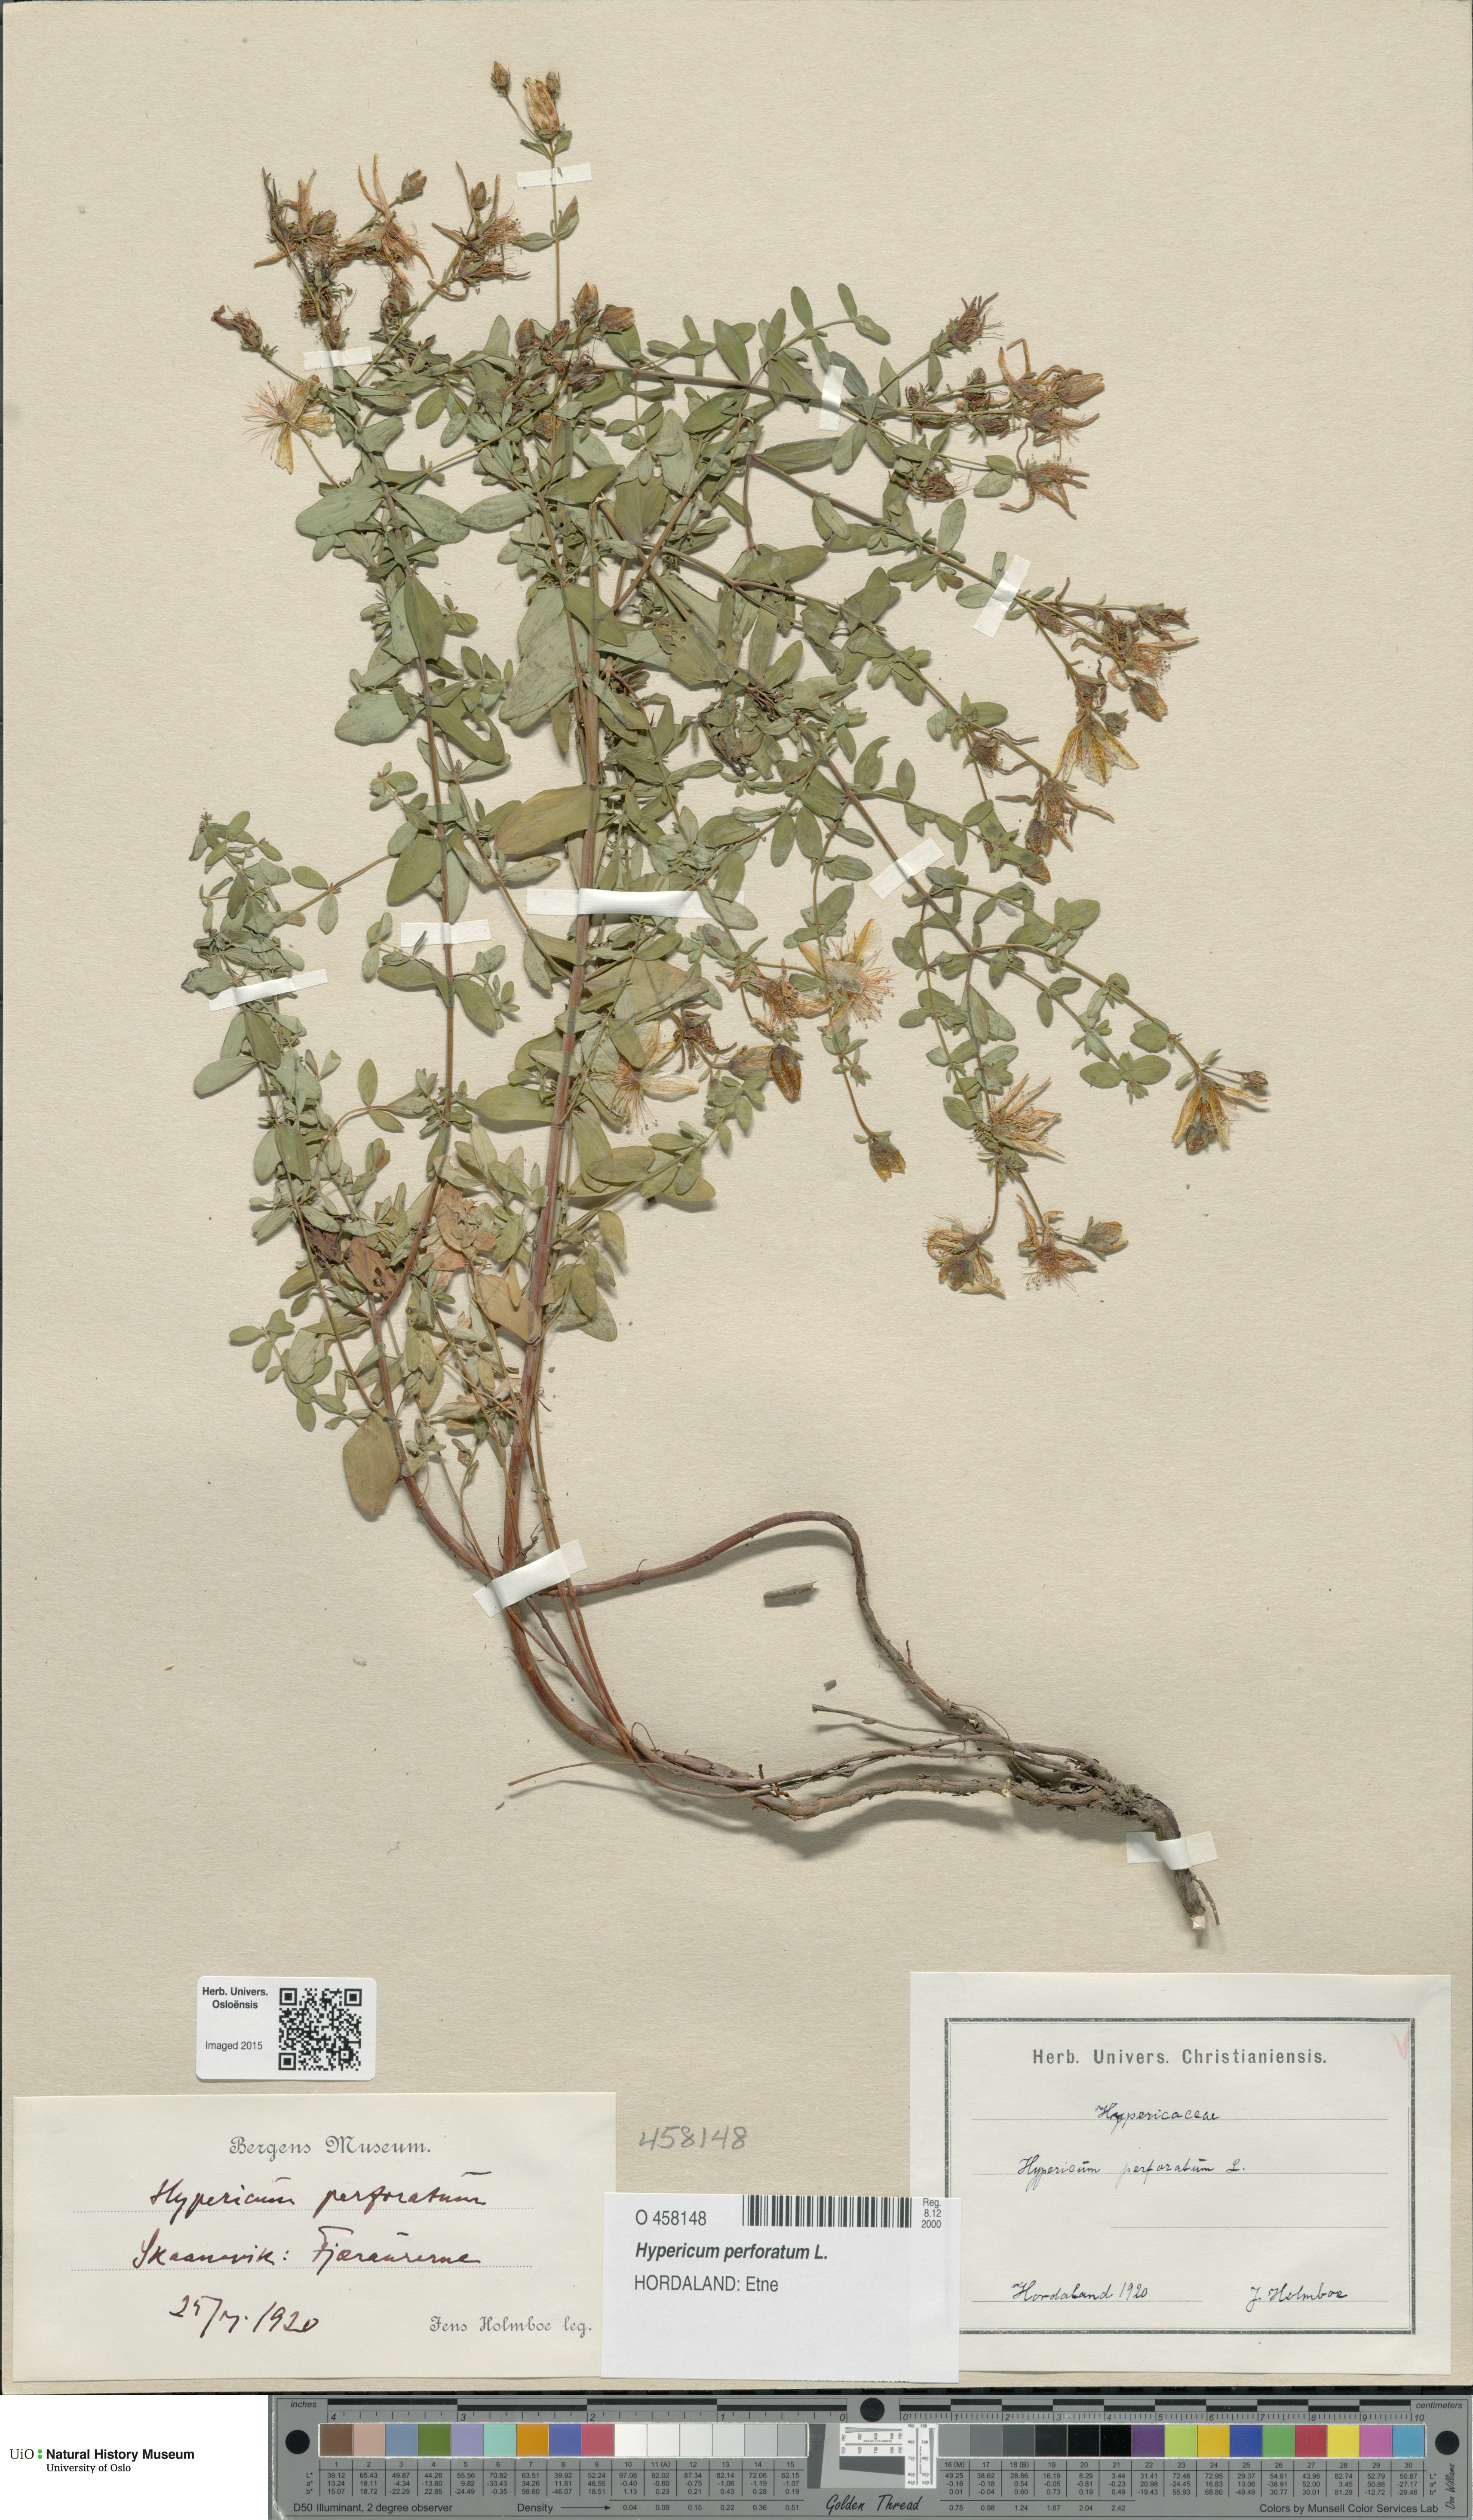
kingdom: Plantae
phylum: Tracheophyta
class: Magnoliopsida
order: Malpighiales
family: Hypericaceae
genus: Hypericum
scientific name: Hypericum perforatum
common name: Common st. johnswort
